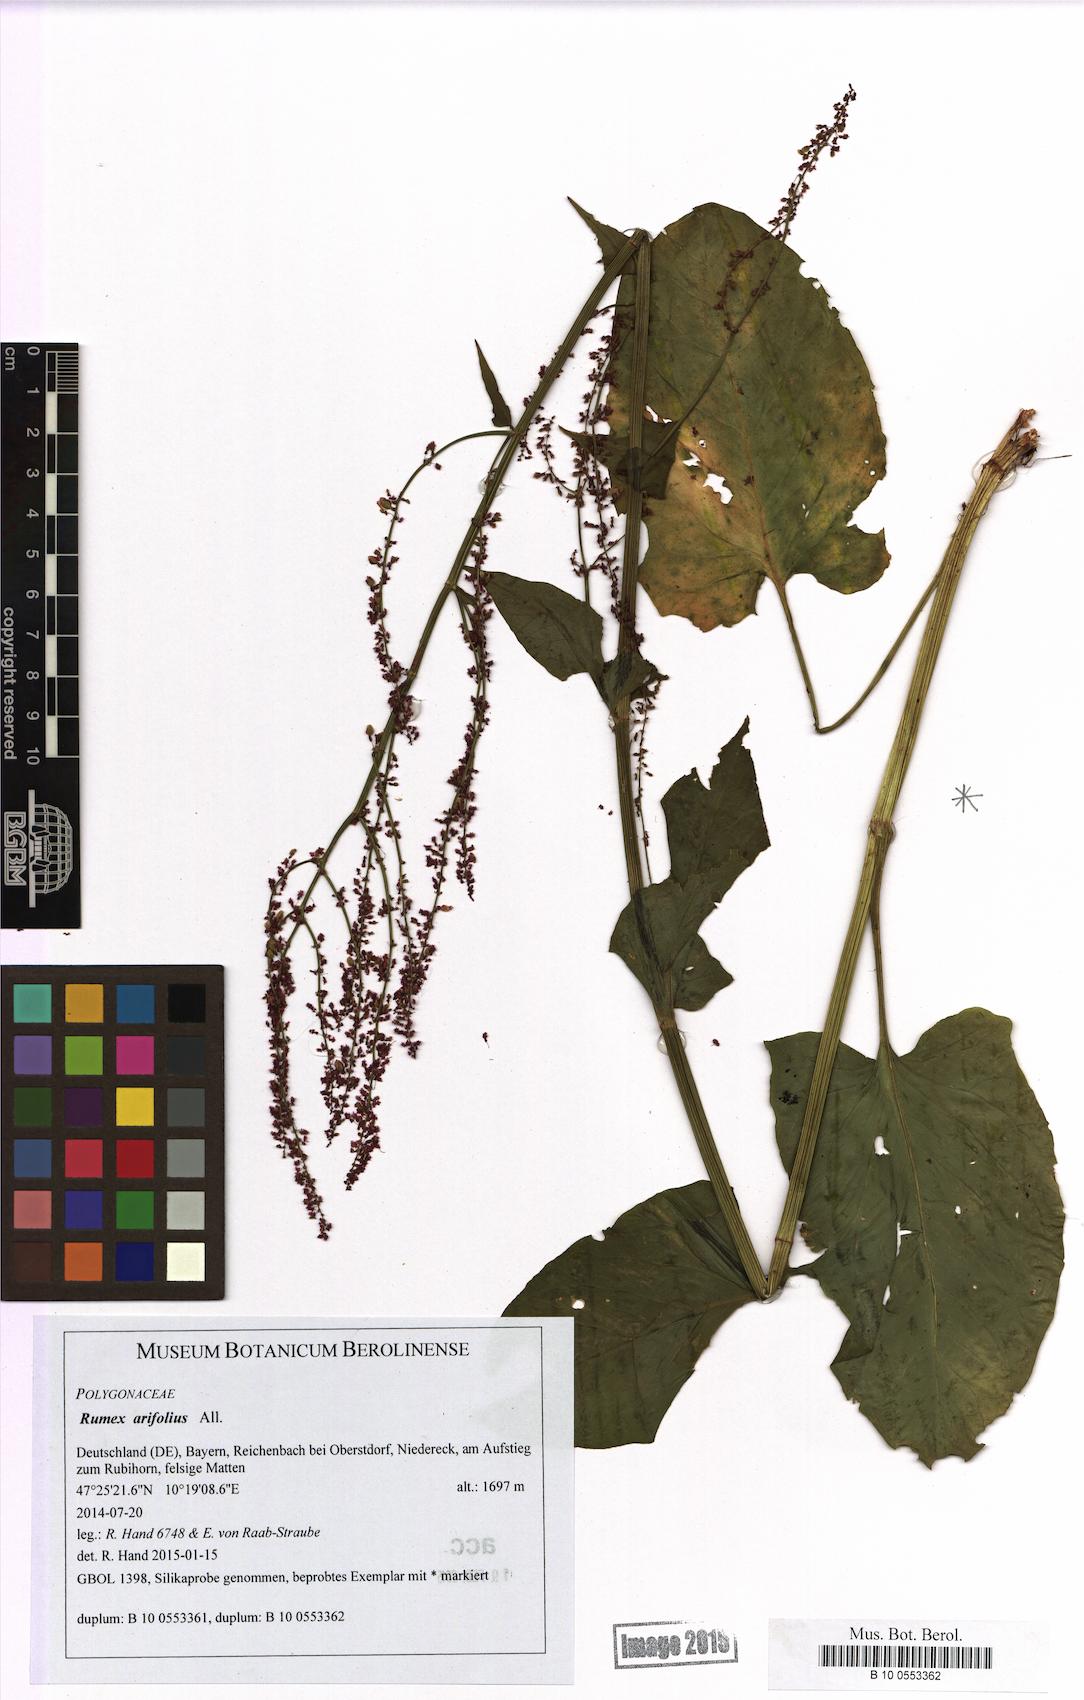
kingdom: Plantae
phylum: Tracheophyta
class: Magnoliopsida
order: Caryophyllales
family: Polygonaceae
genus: Rumex
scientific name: Rumex arifolius
